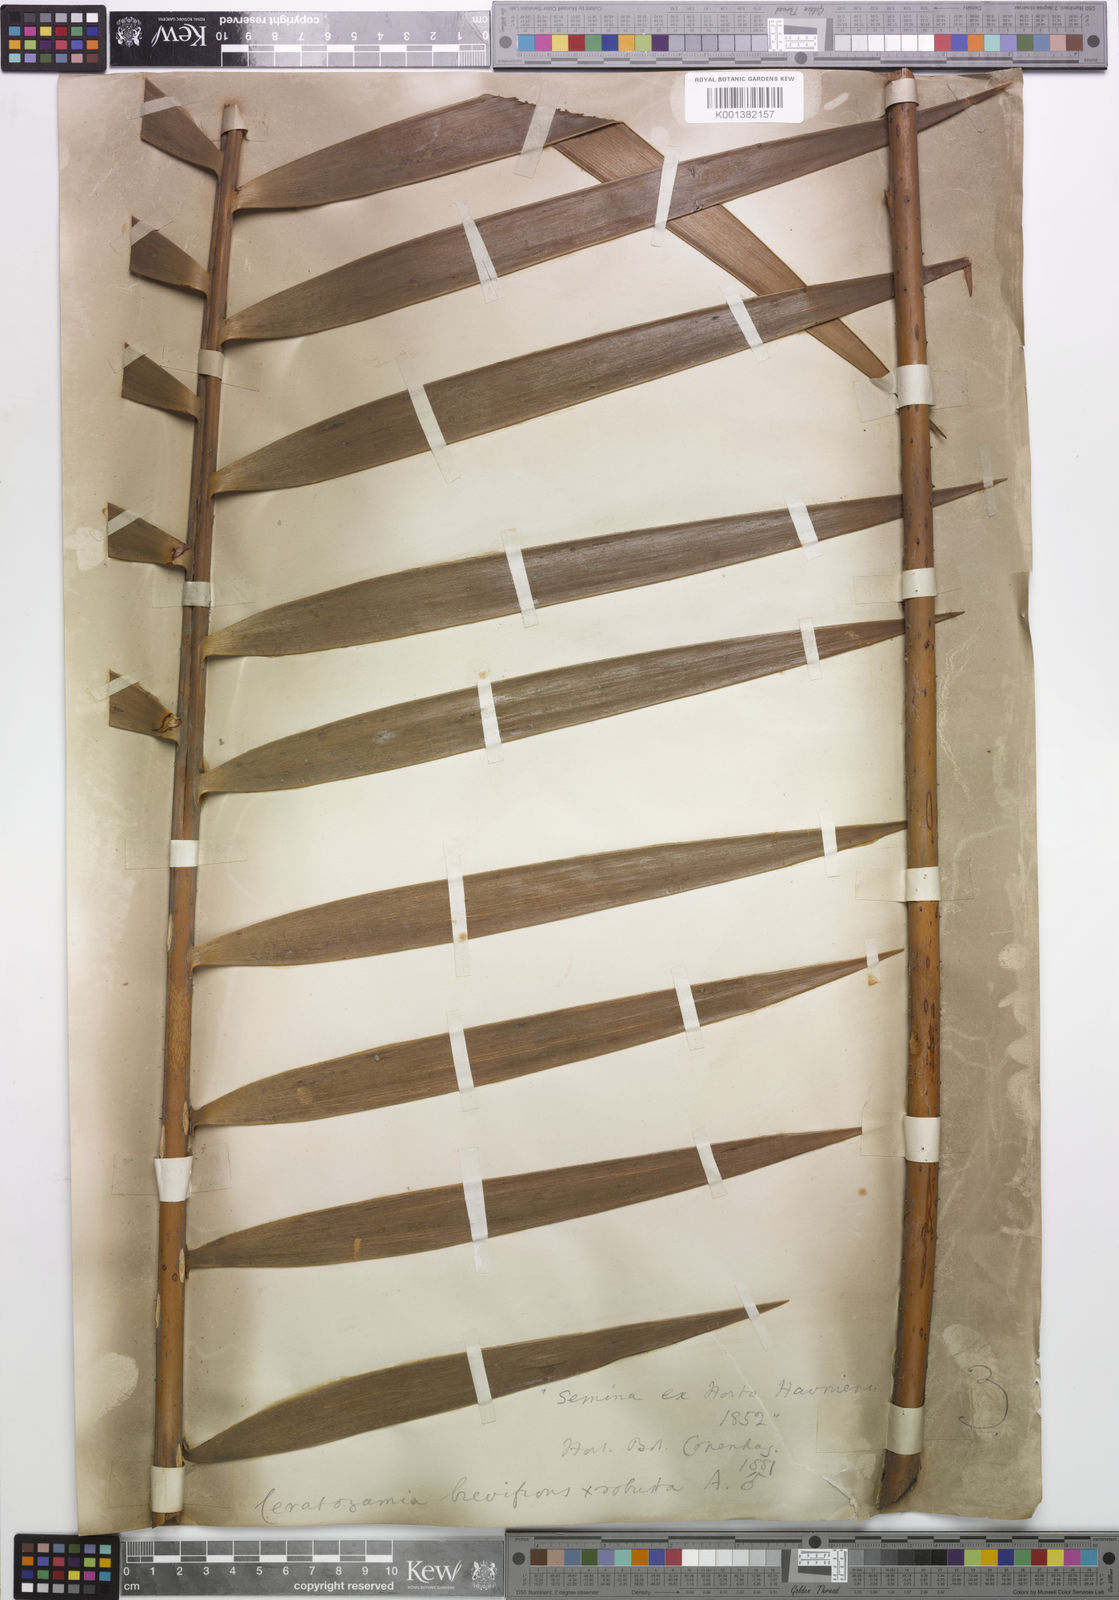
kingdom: Plantae
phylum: Tracheophyta
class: Cycadopsida
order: Cycadales
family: Zamiaceae
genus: Ceratozamia
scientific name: Ceratozamia brevifrons
